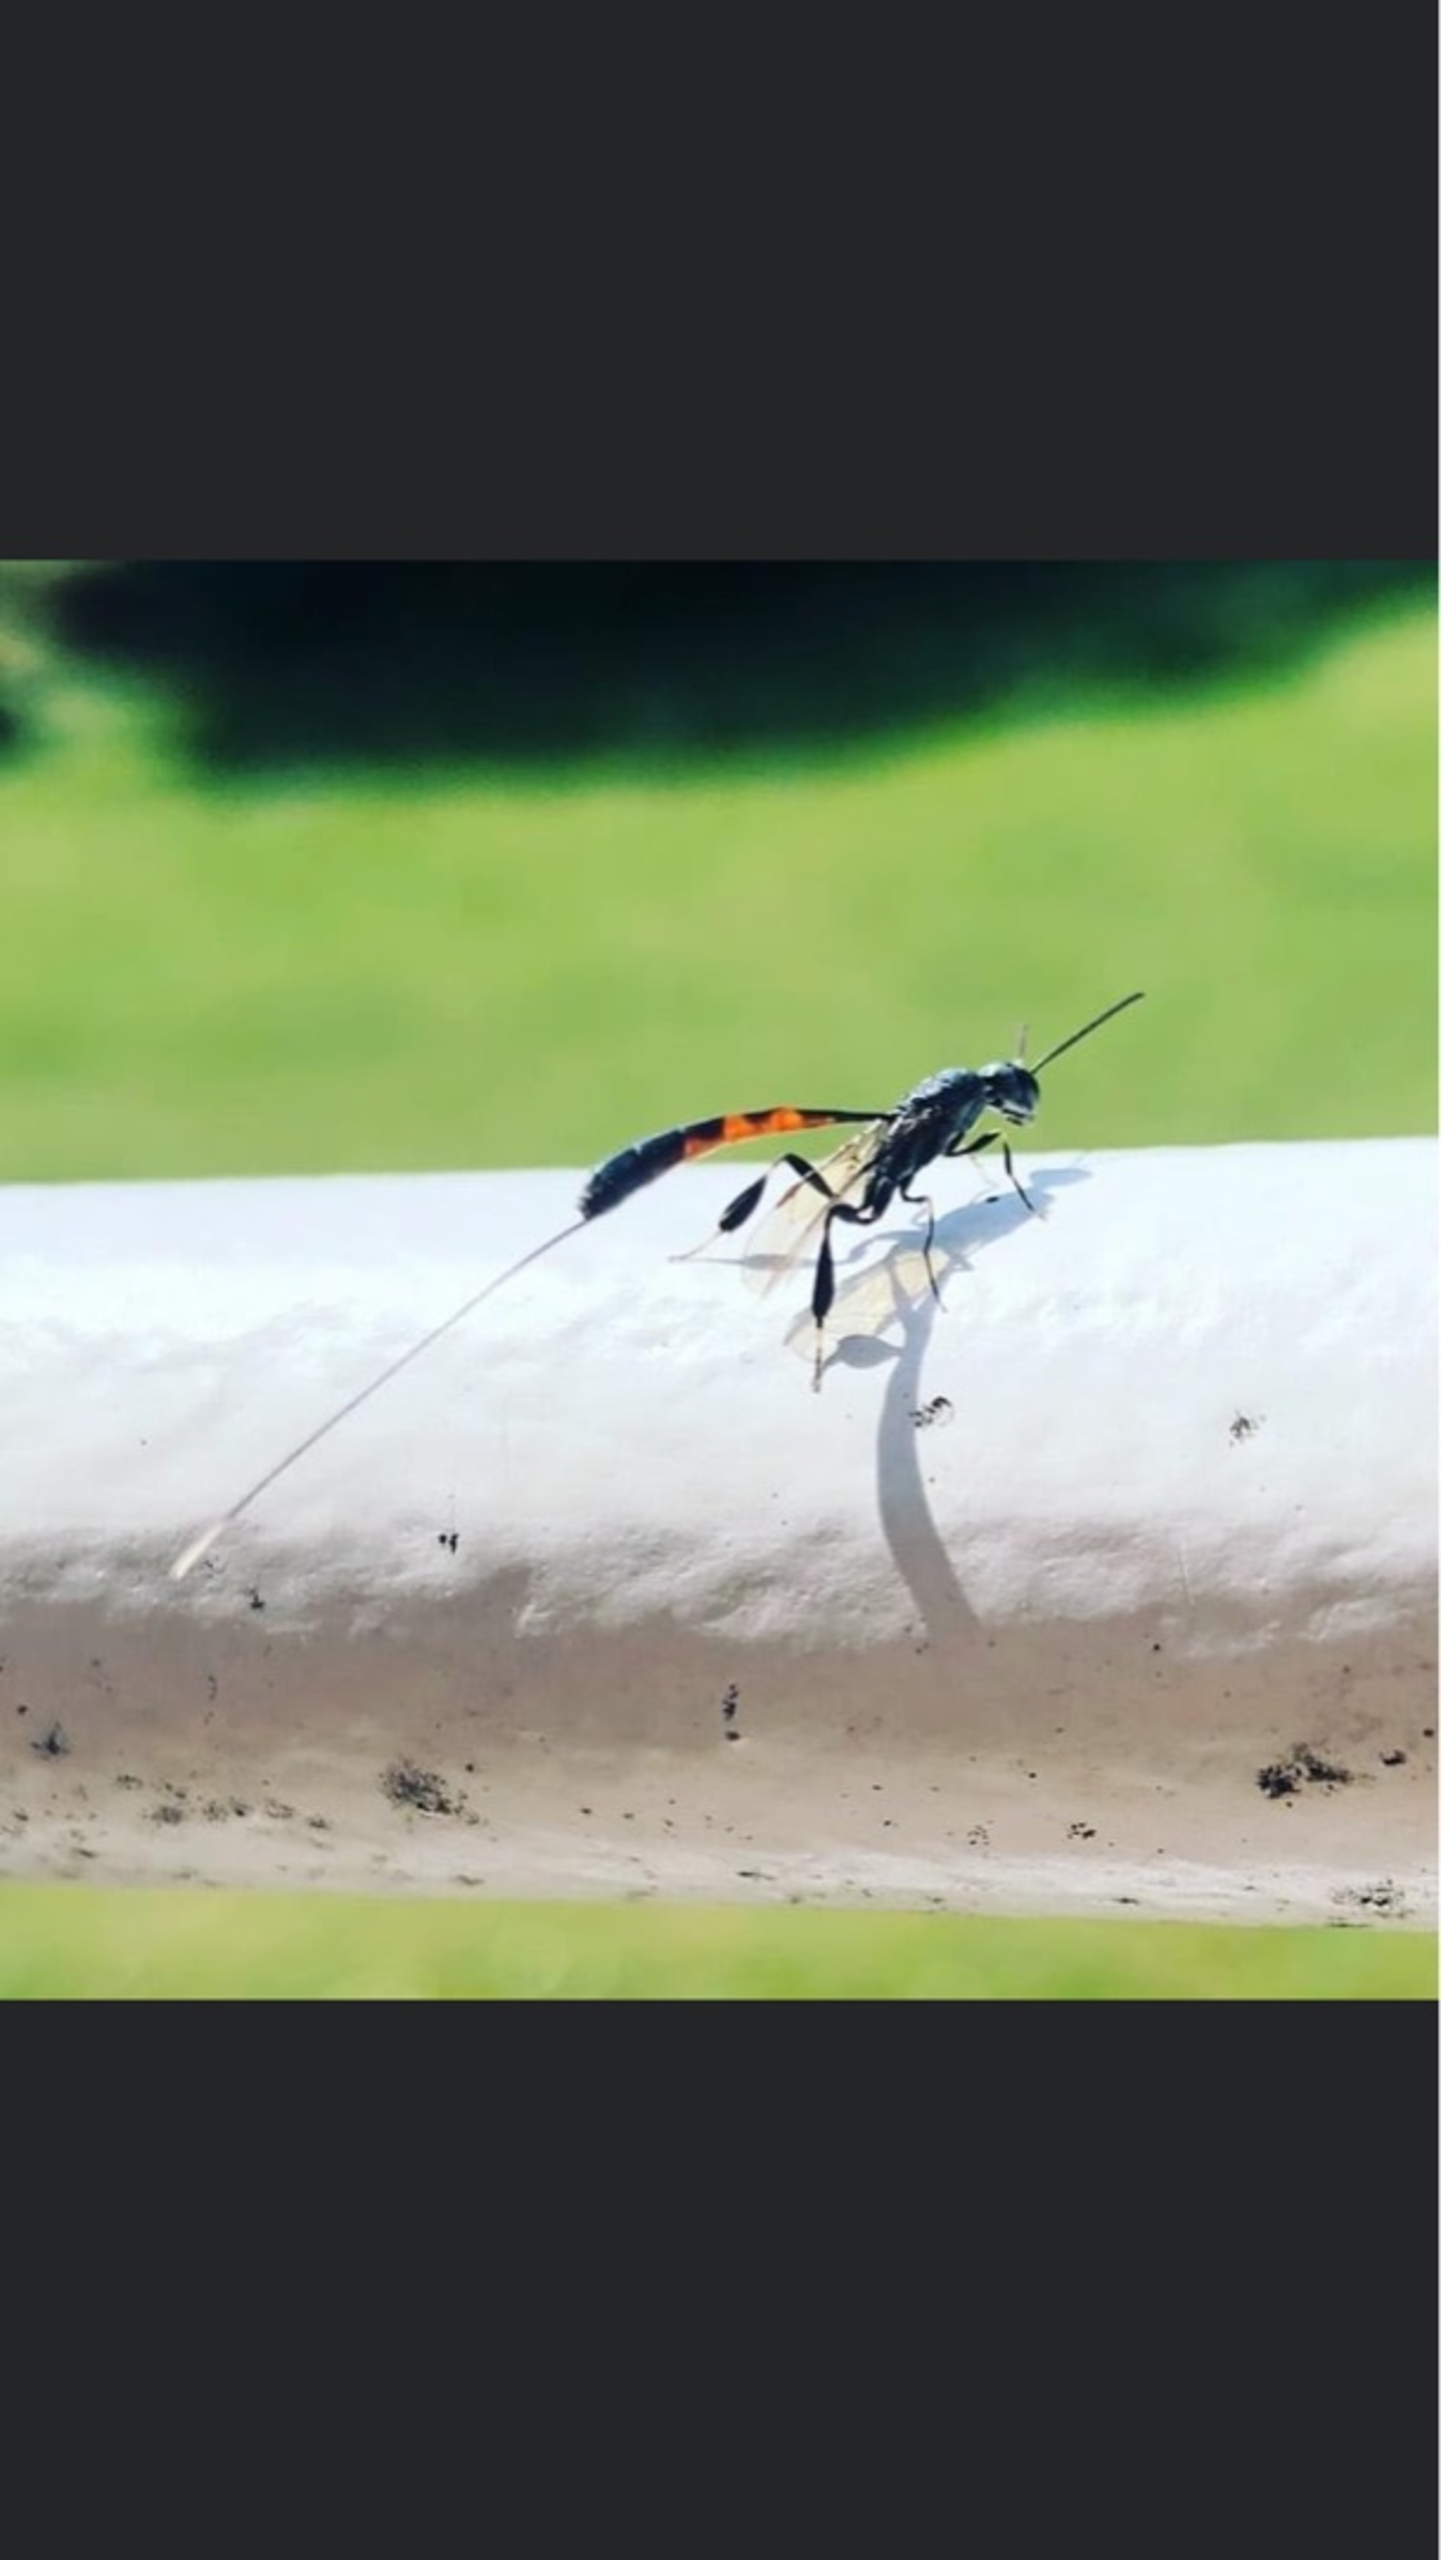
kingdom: Animalia
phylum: Arthropoda
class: Insecta
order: Hymenoptera
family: Gasteruptiidae
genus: Gasteruption
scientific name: Gasteruption
